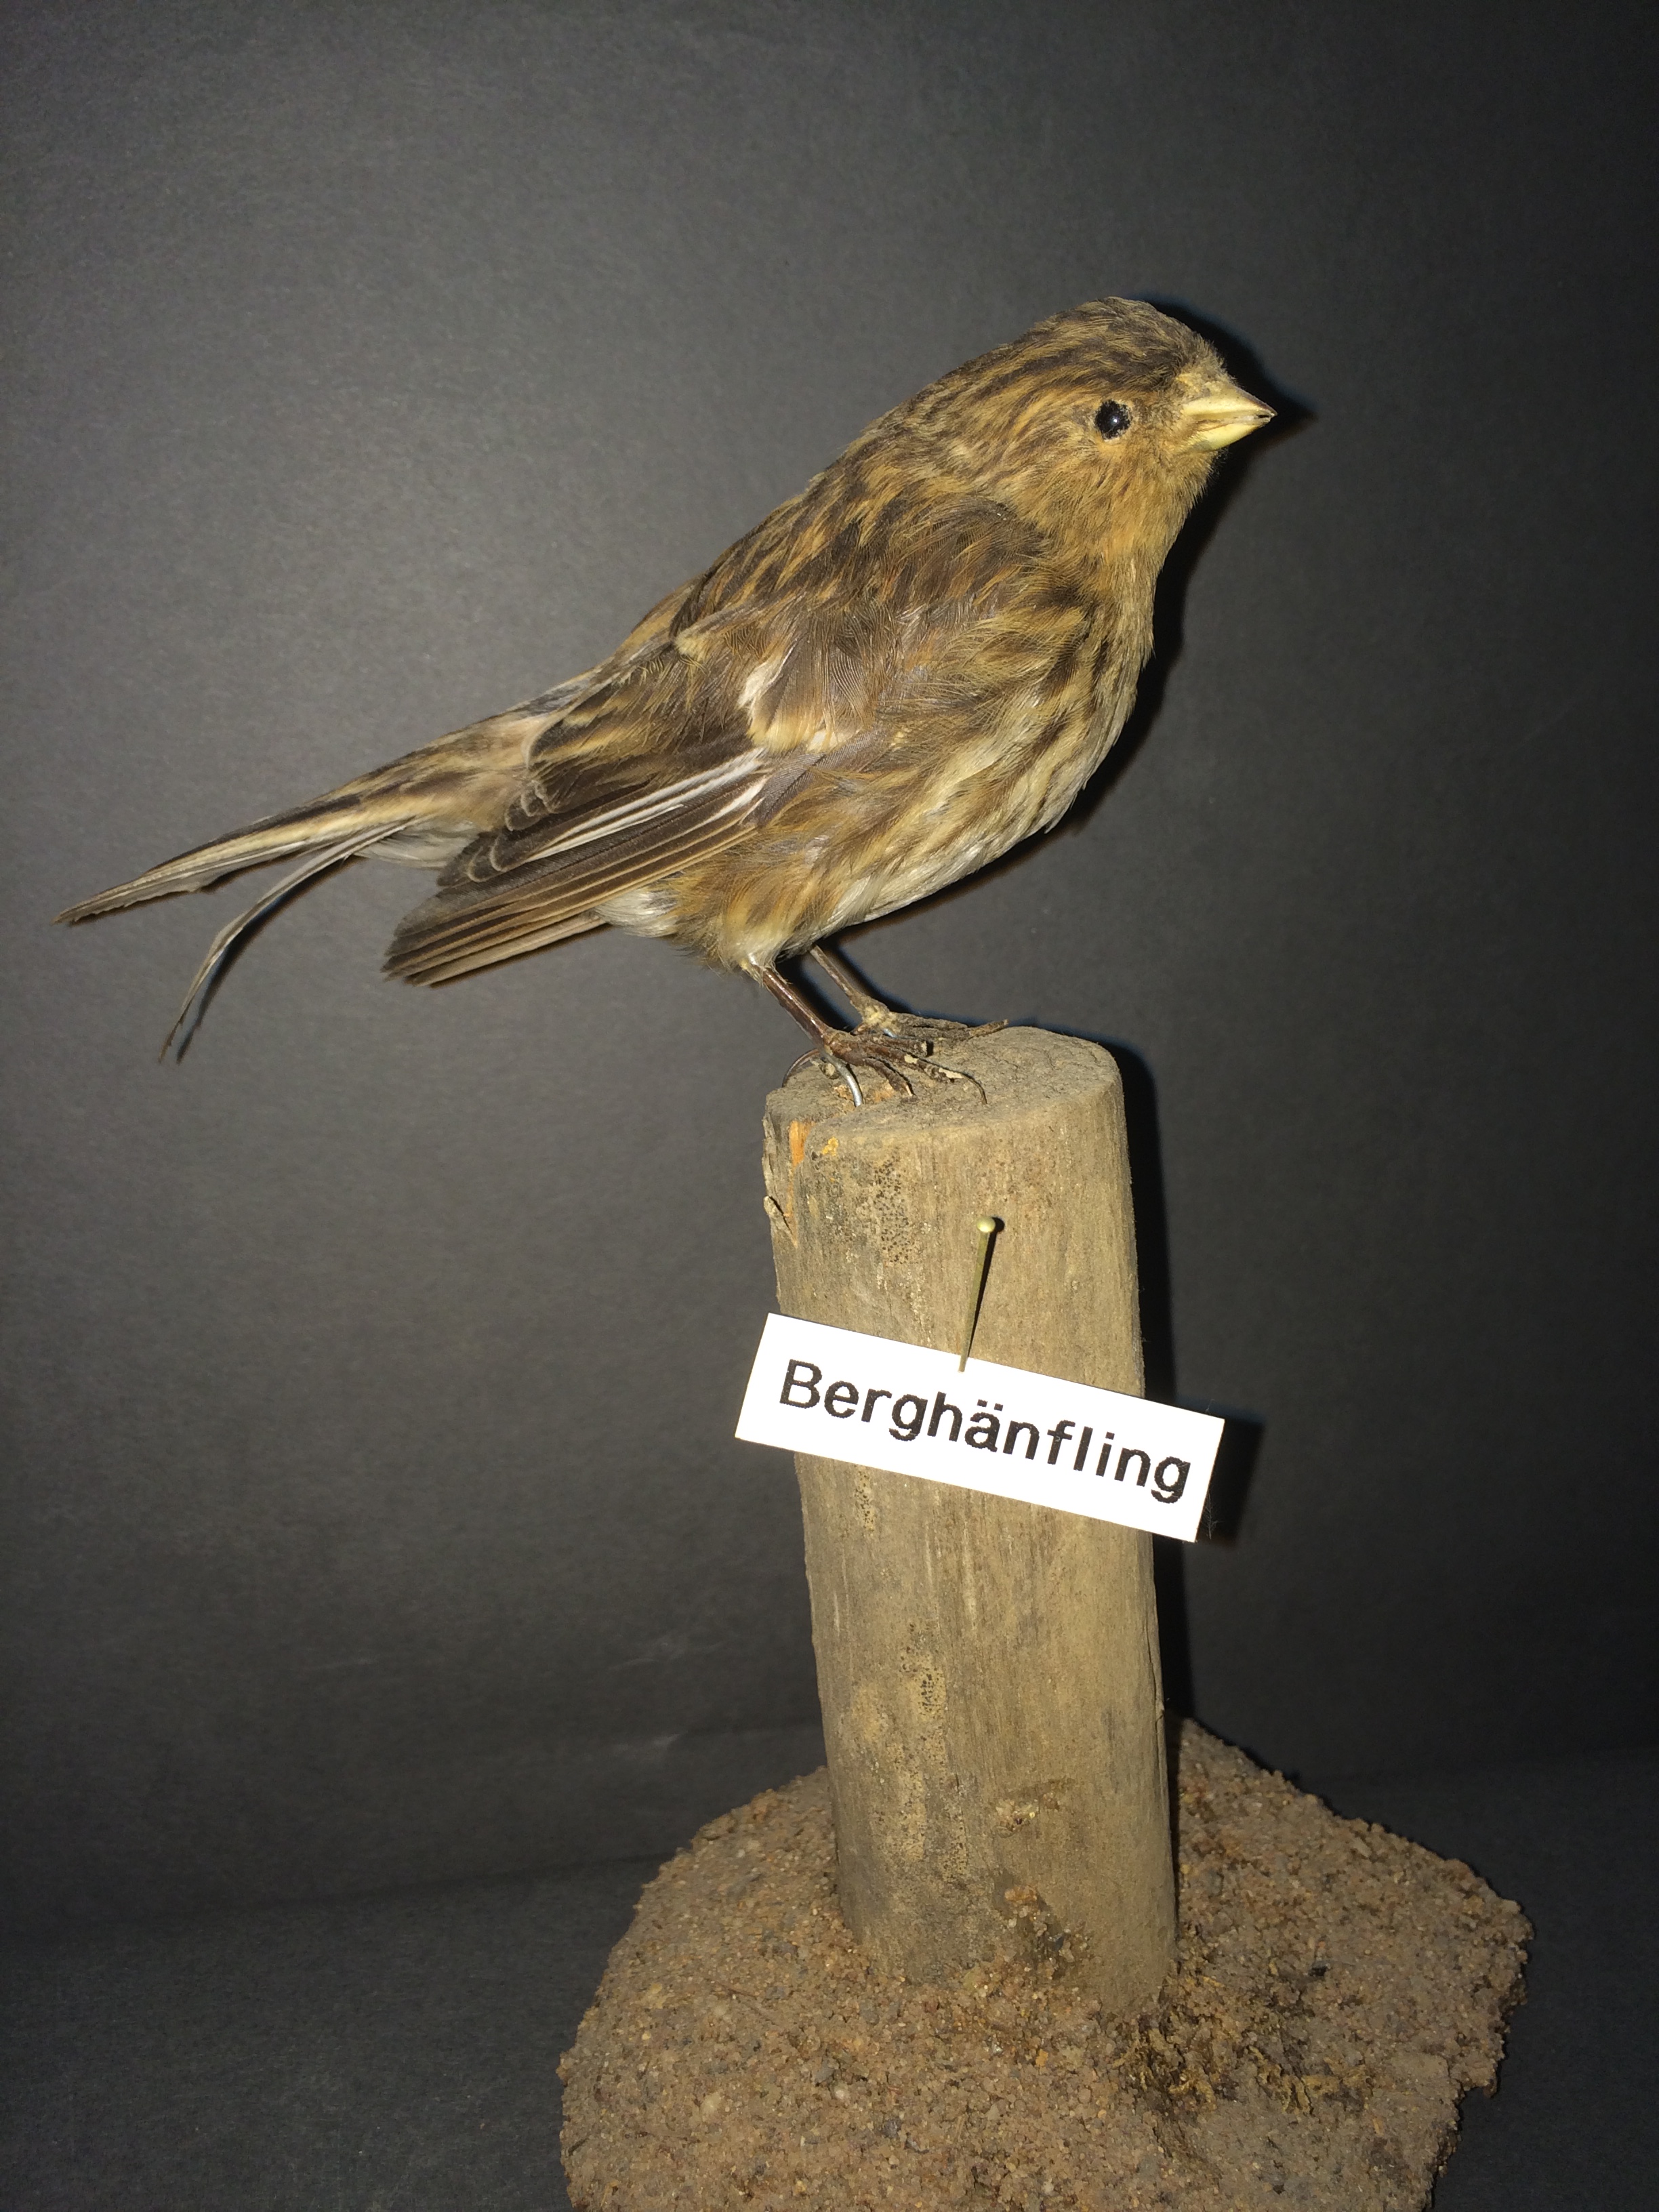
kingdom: Animalia
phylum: Chordata
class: Aves
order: Passeriformes
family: Fringillidae
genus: Linaria
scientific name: Linaria flavirostris
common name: Twite
